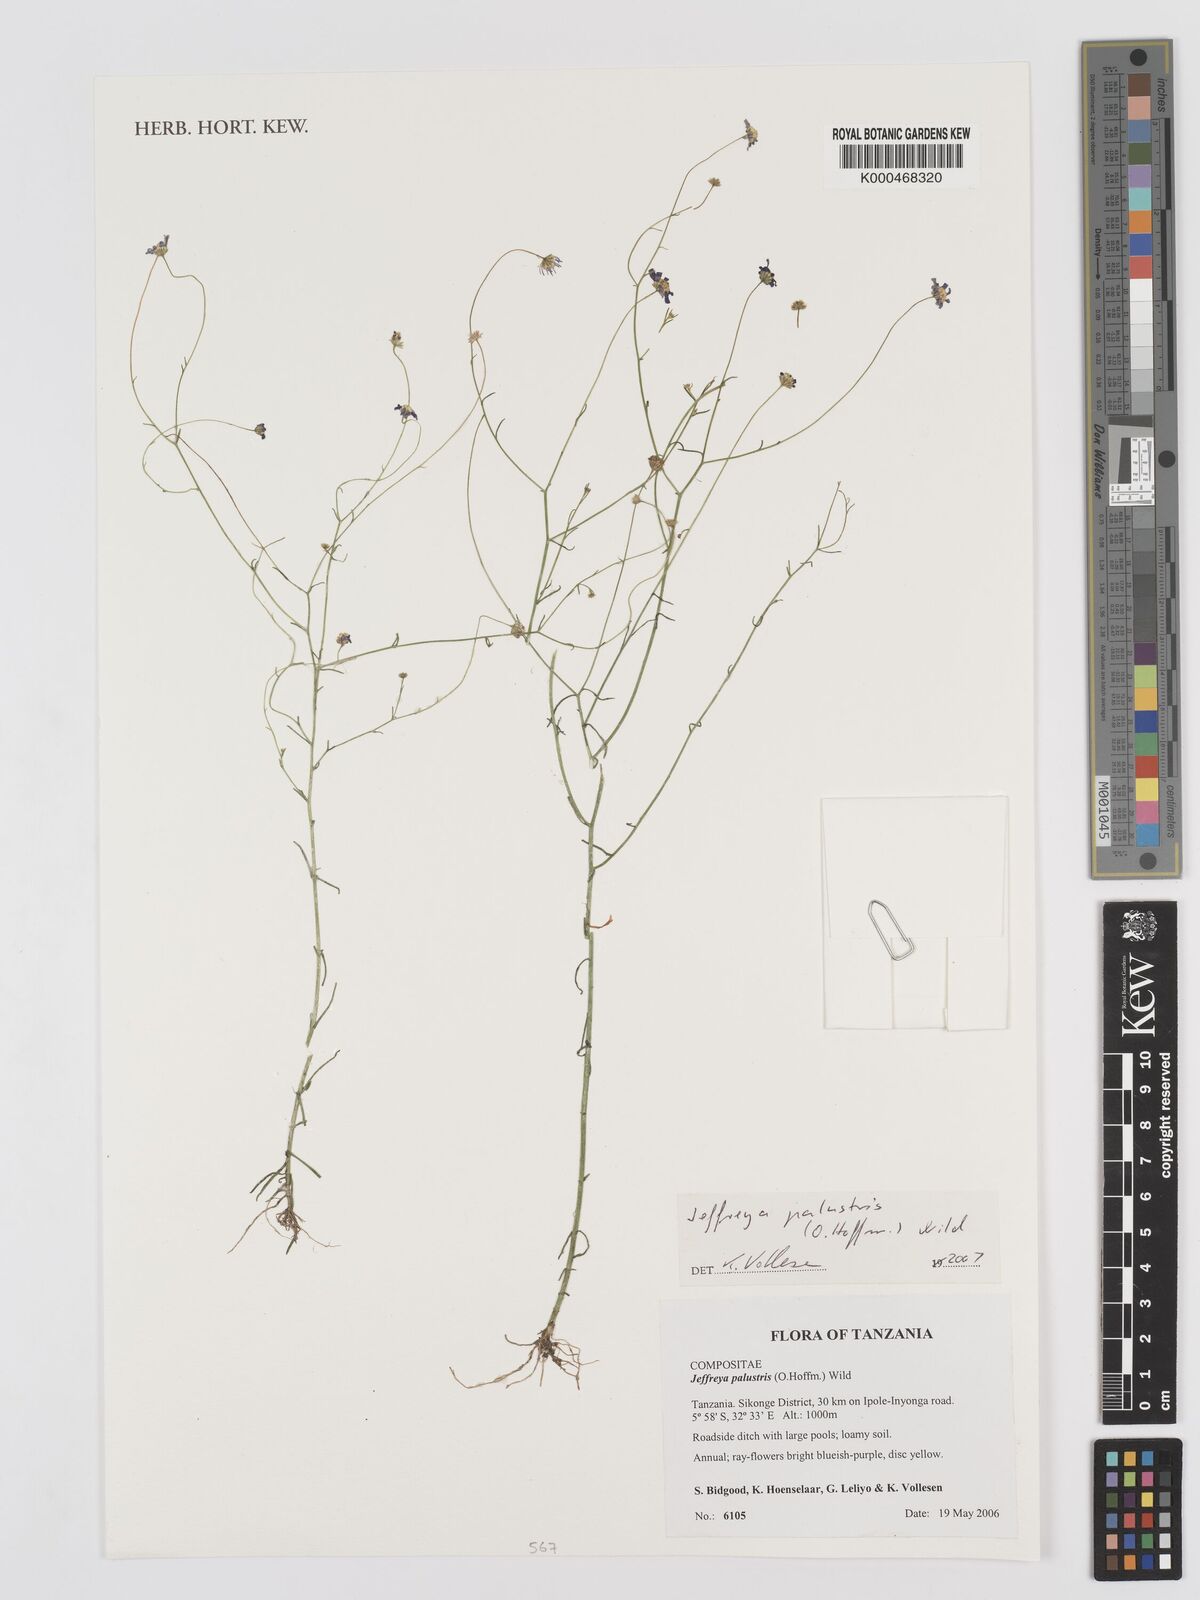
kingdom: Plantae
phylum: Tracheophyta
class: Magnoliopsida
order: Asterales
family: Asteraceae
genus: Jeffreya
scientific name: Jeffreya palustris
